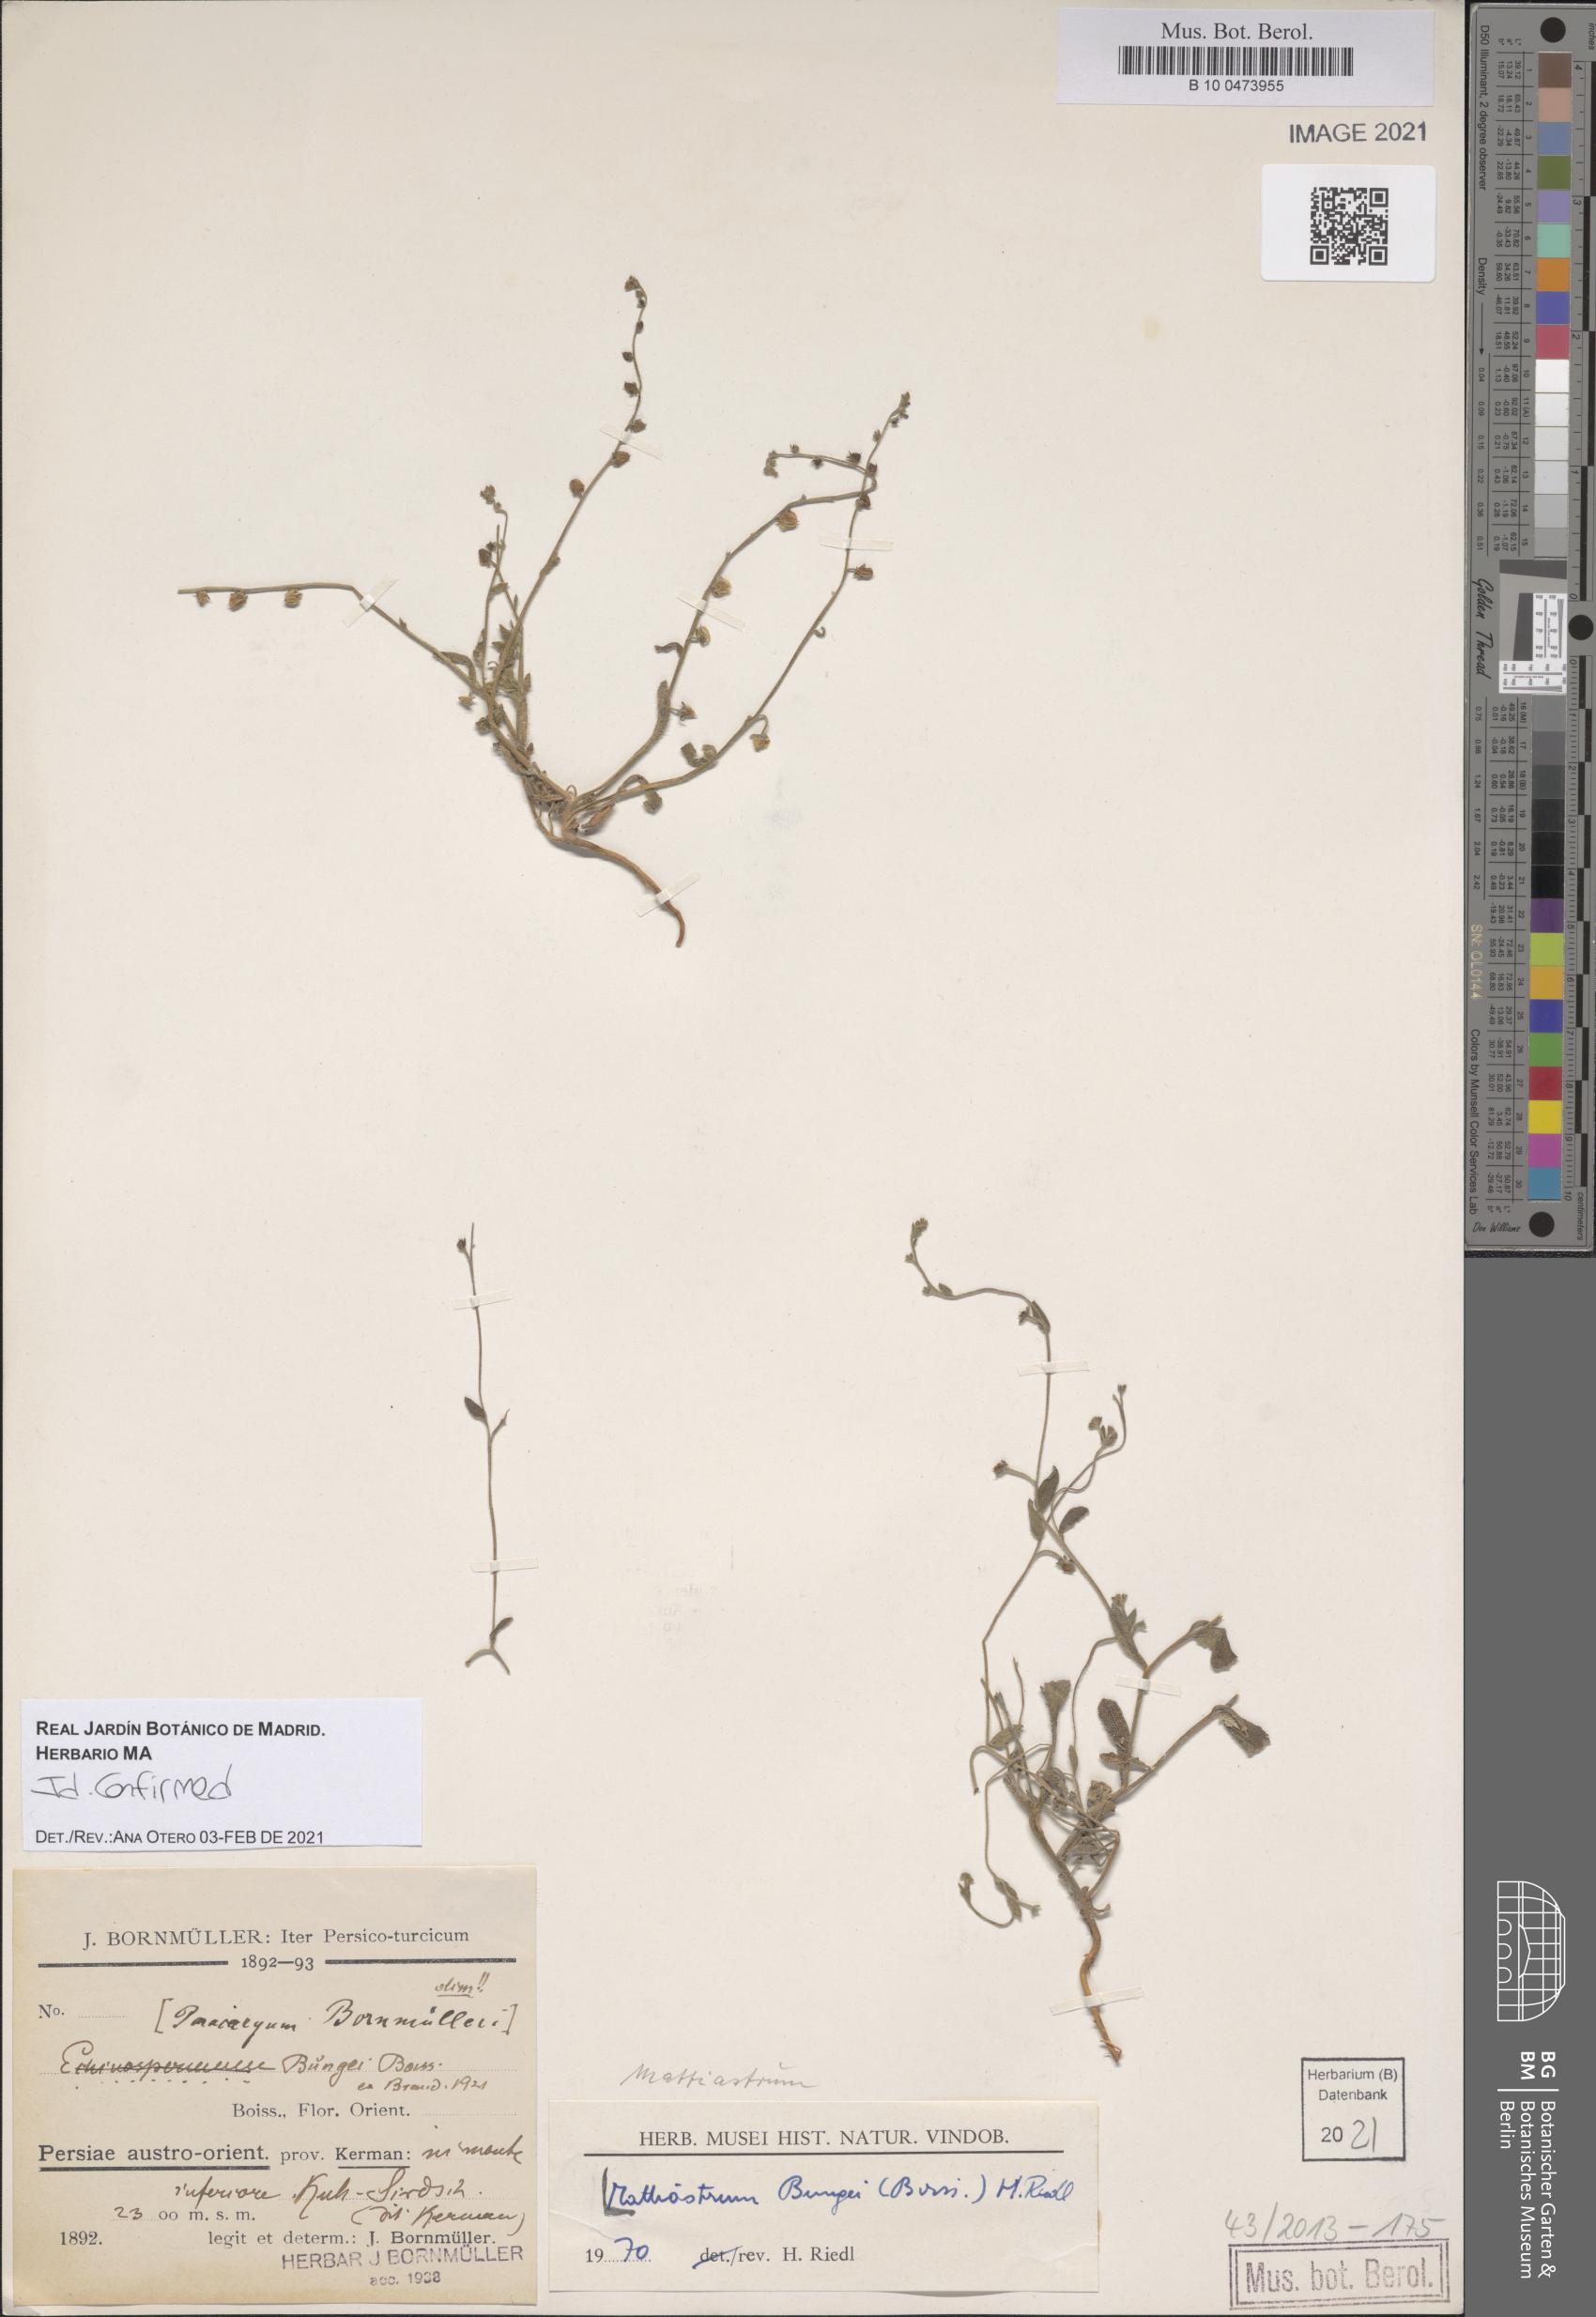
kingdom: Plantae
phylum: Tracheophyta
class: Magnoliopsida
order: Boraginales
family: Boraginaceae
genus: Microparacaryum
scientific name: Microparacaryum intermedium
